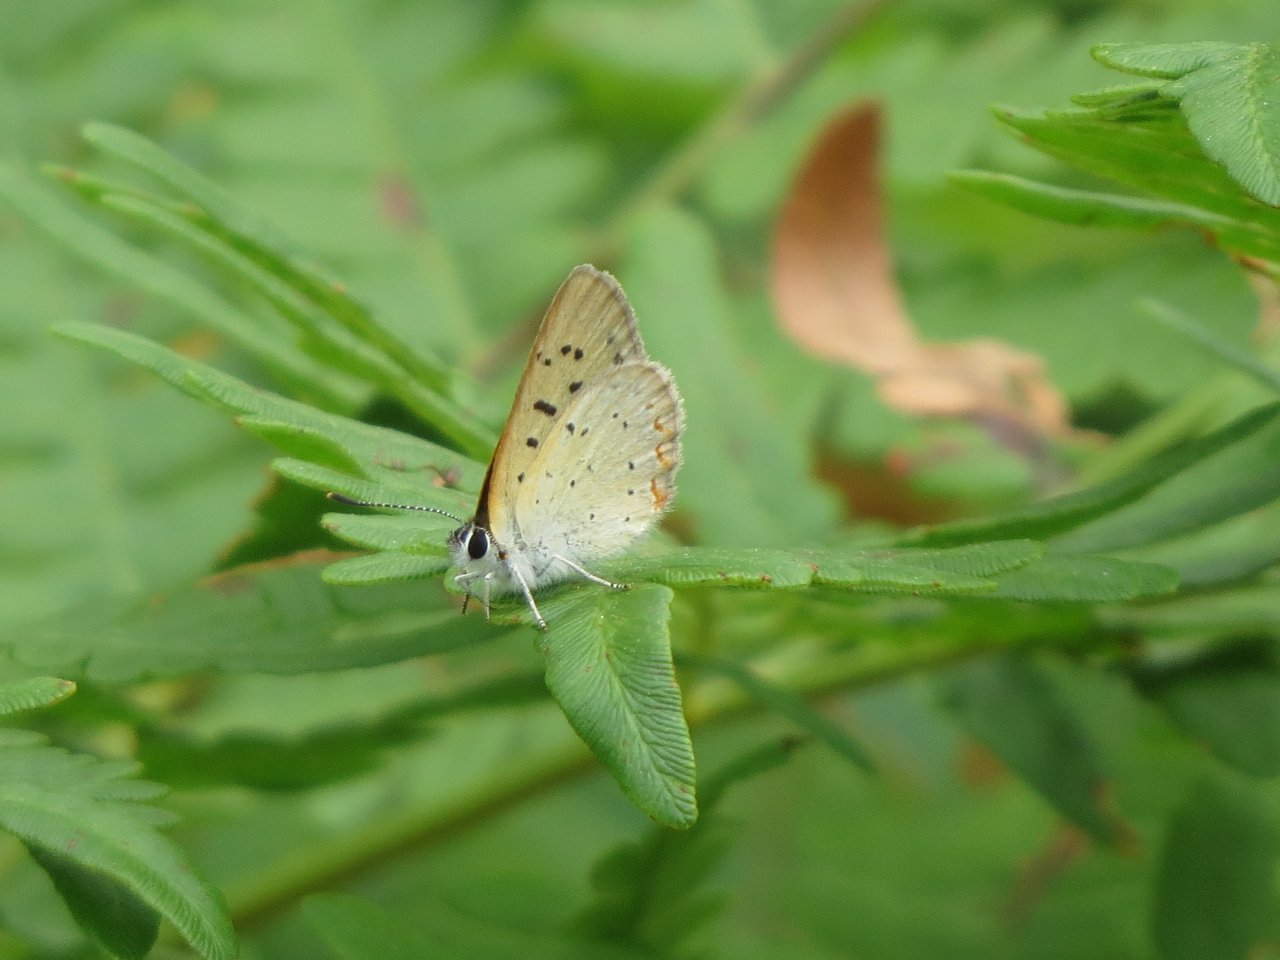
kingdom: Animalia
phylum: Arthropoda
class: Insecta
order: Lepidoptera
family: Sesiidae
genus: Sesia
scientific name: Sesia Lycaena epixanthe
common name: Bog Copper
